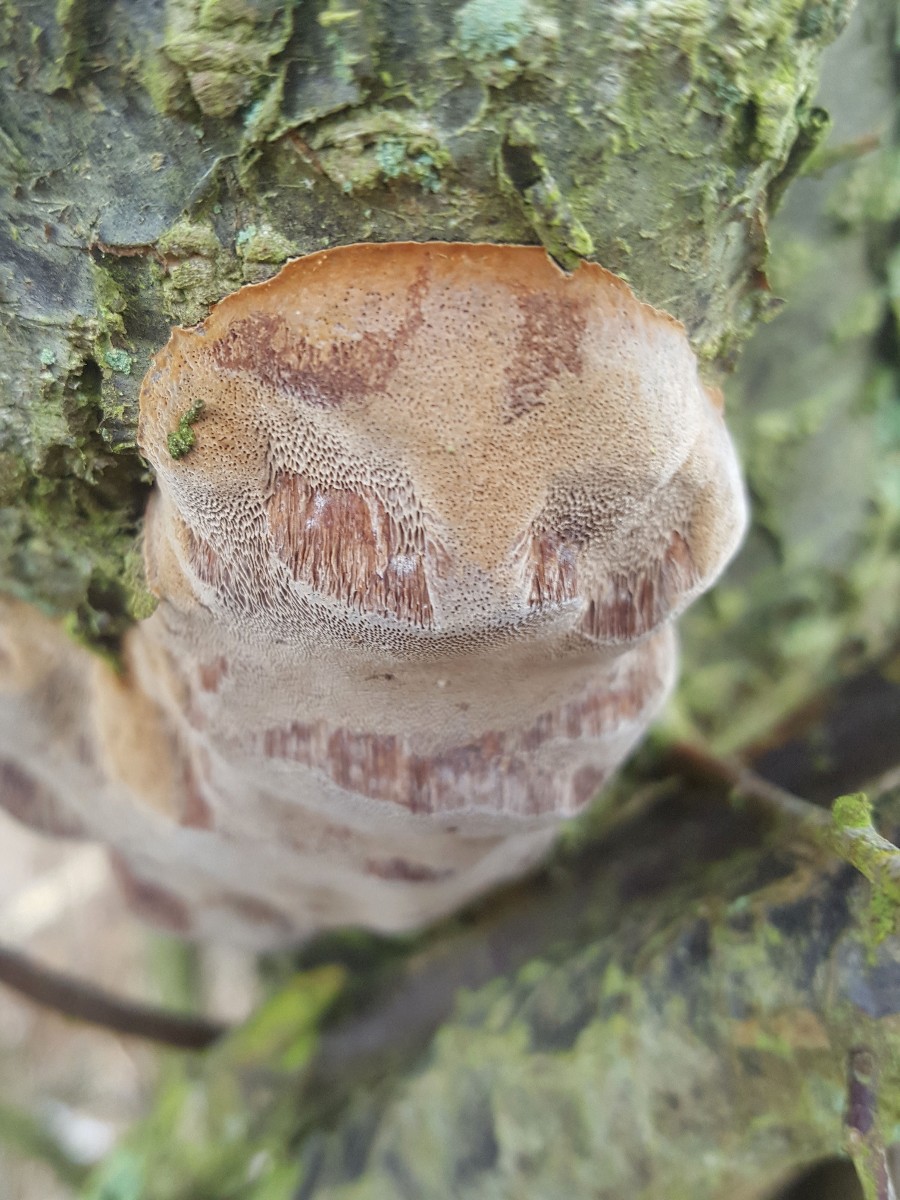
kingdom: Fungi
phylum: Basidiomycota
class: Agaricomycetes
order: Hymenochaetales
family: Hymenochaetaceae
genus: Phellinus
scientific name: Phellinus pomaceus
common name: blomme-ildporesvamp
